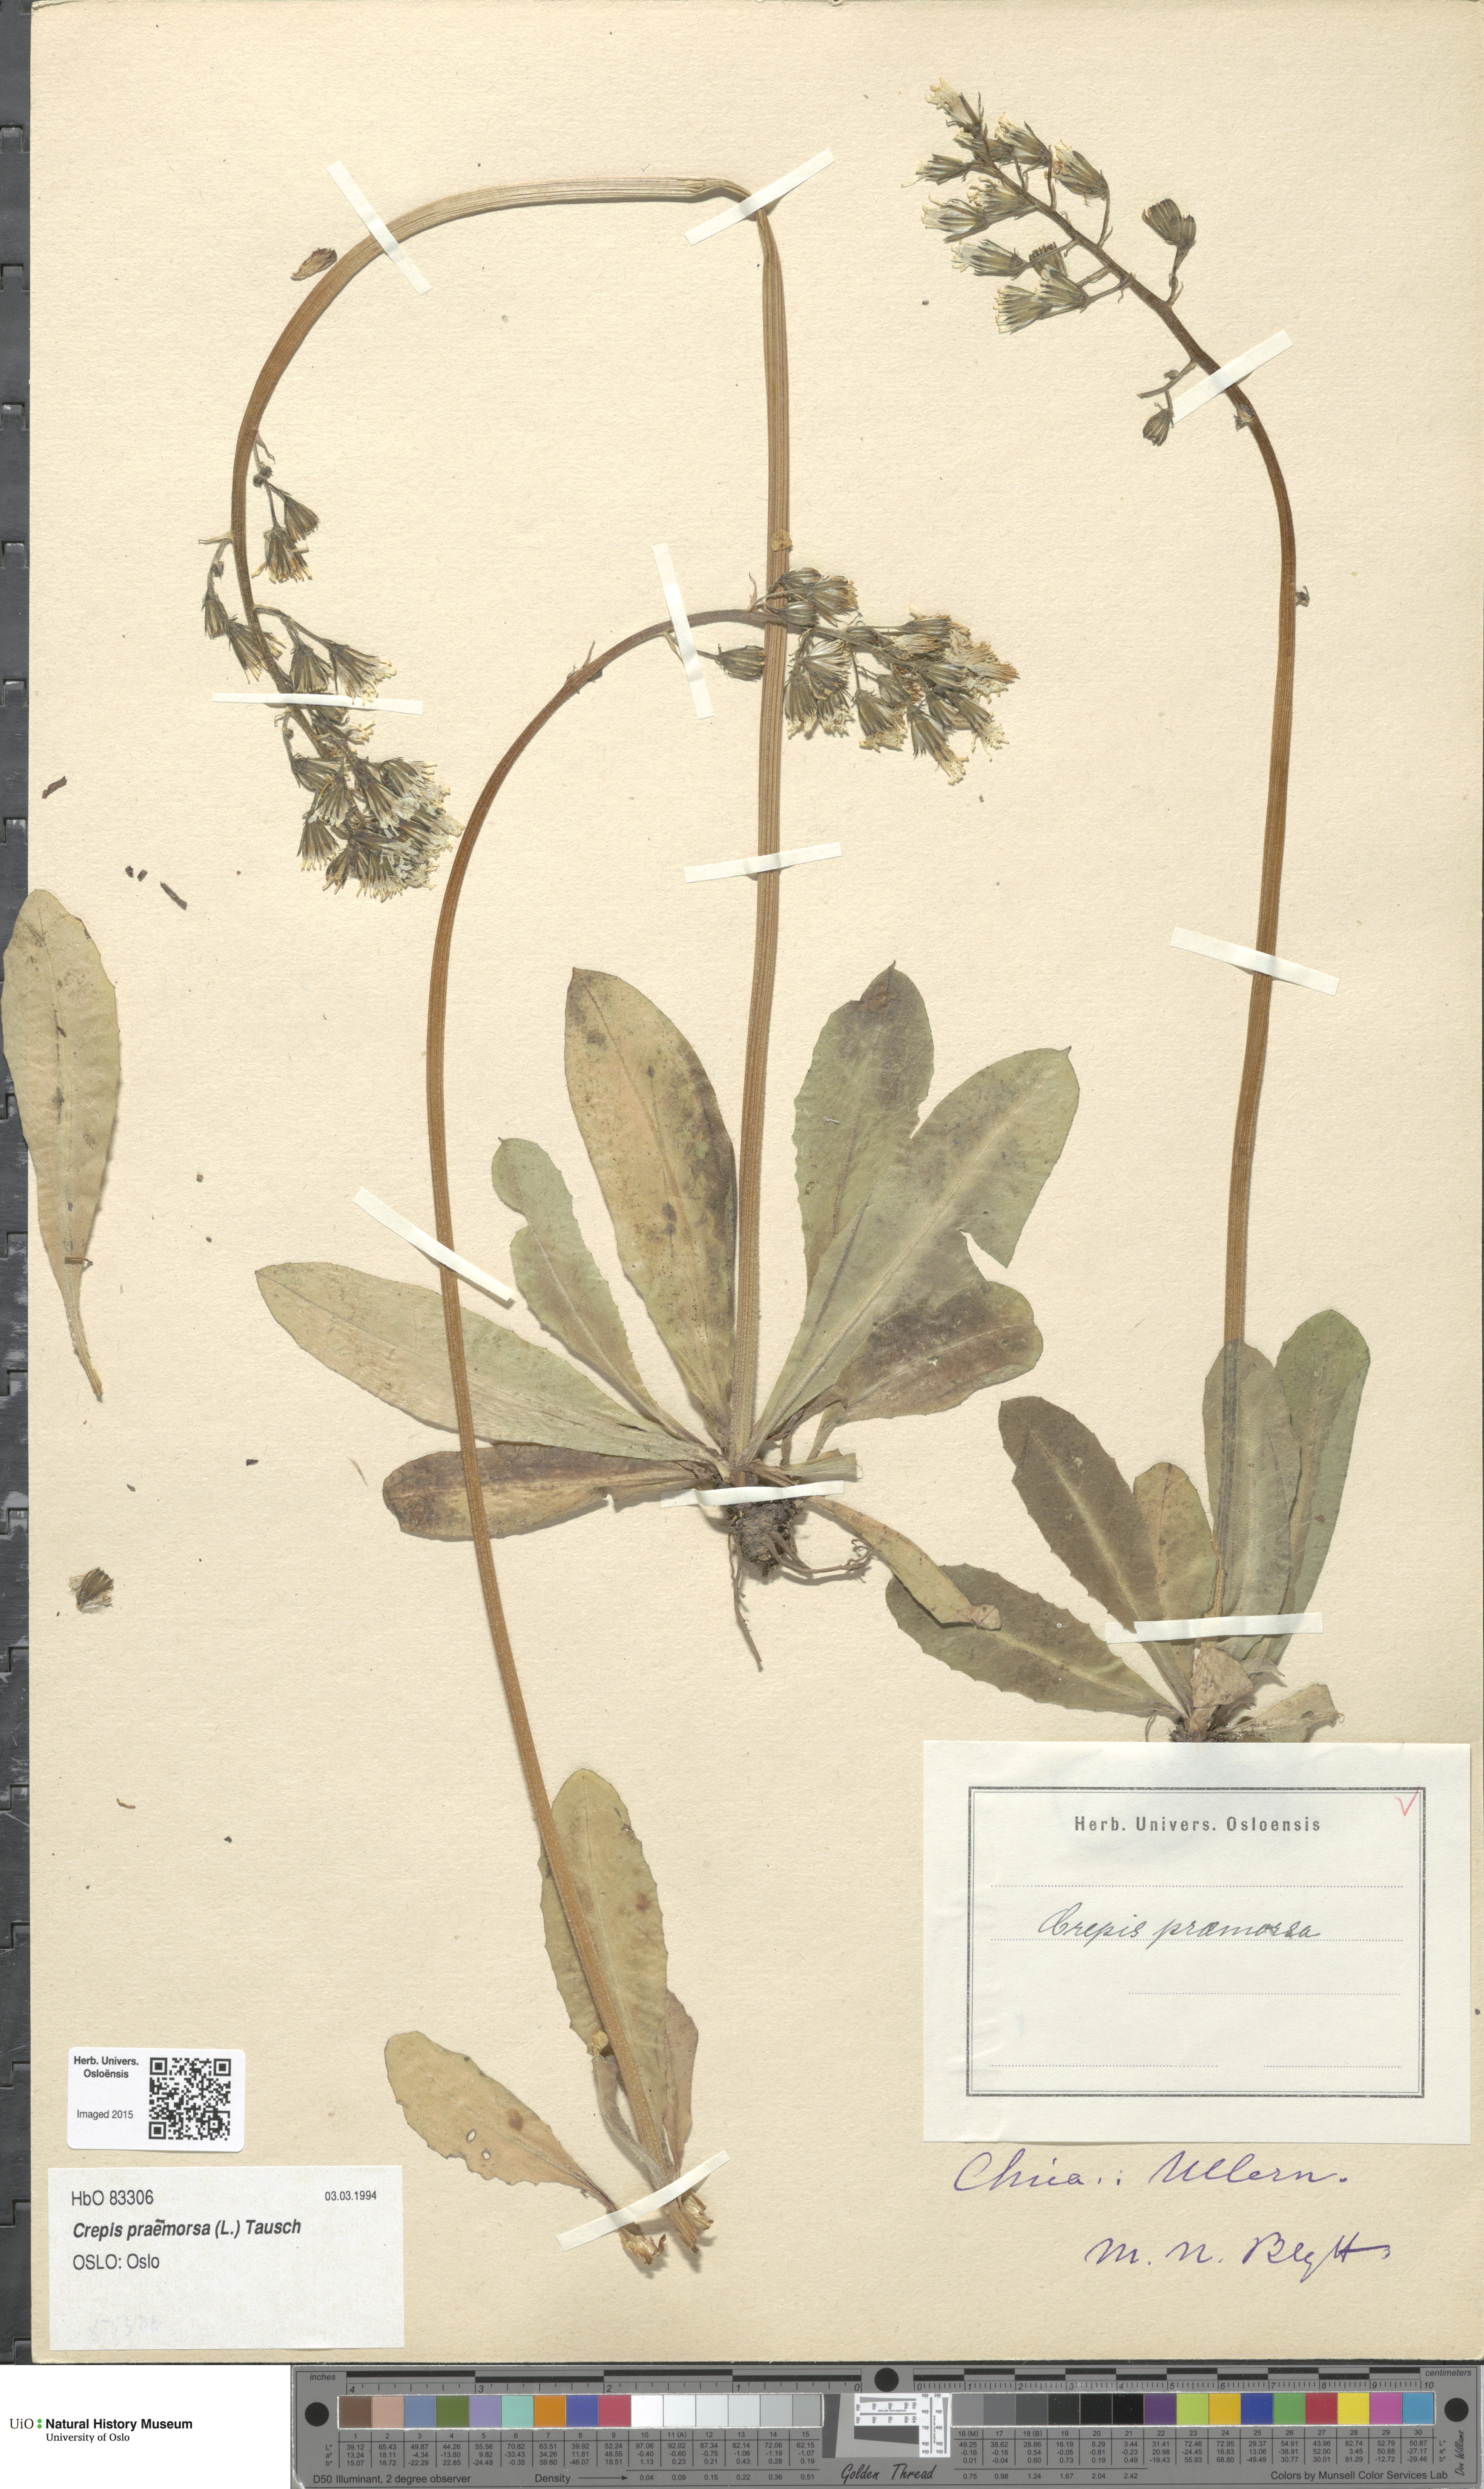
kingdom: Plantae
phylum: Tracheophyta
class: Magnoliopsida
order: Asterales
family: Asteraceae
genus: Crepis
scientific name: Crepis praemorsa
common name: Leafless hawk's-beard
